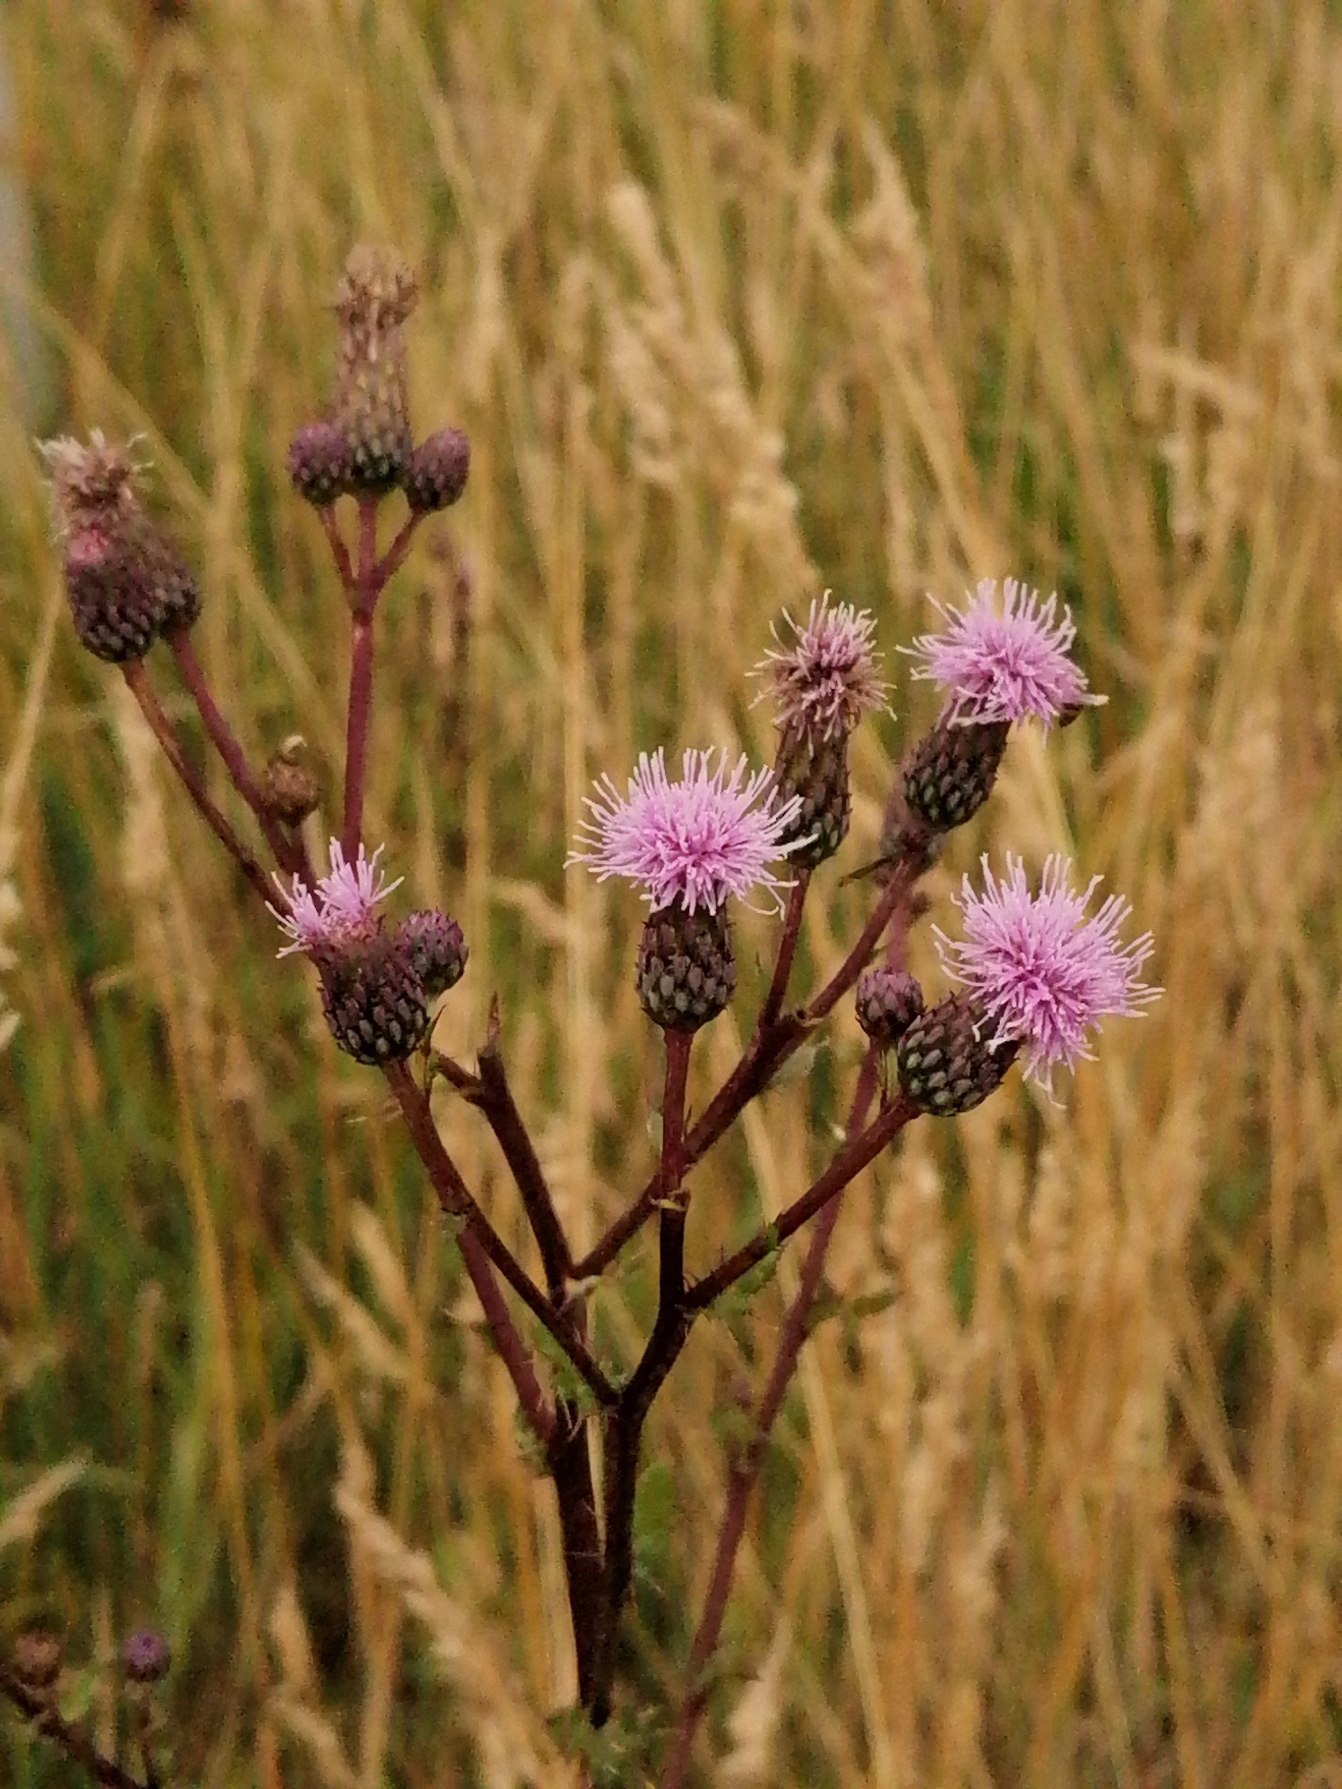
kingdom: Plantae
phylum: Tracheophyta
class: Magnoliopsida
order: Asterales
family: Asteraceae
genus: Cirsium
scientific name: Cirsium arvense
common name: Ager-tidsel
